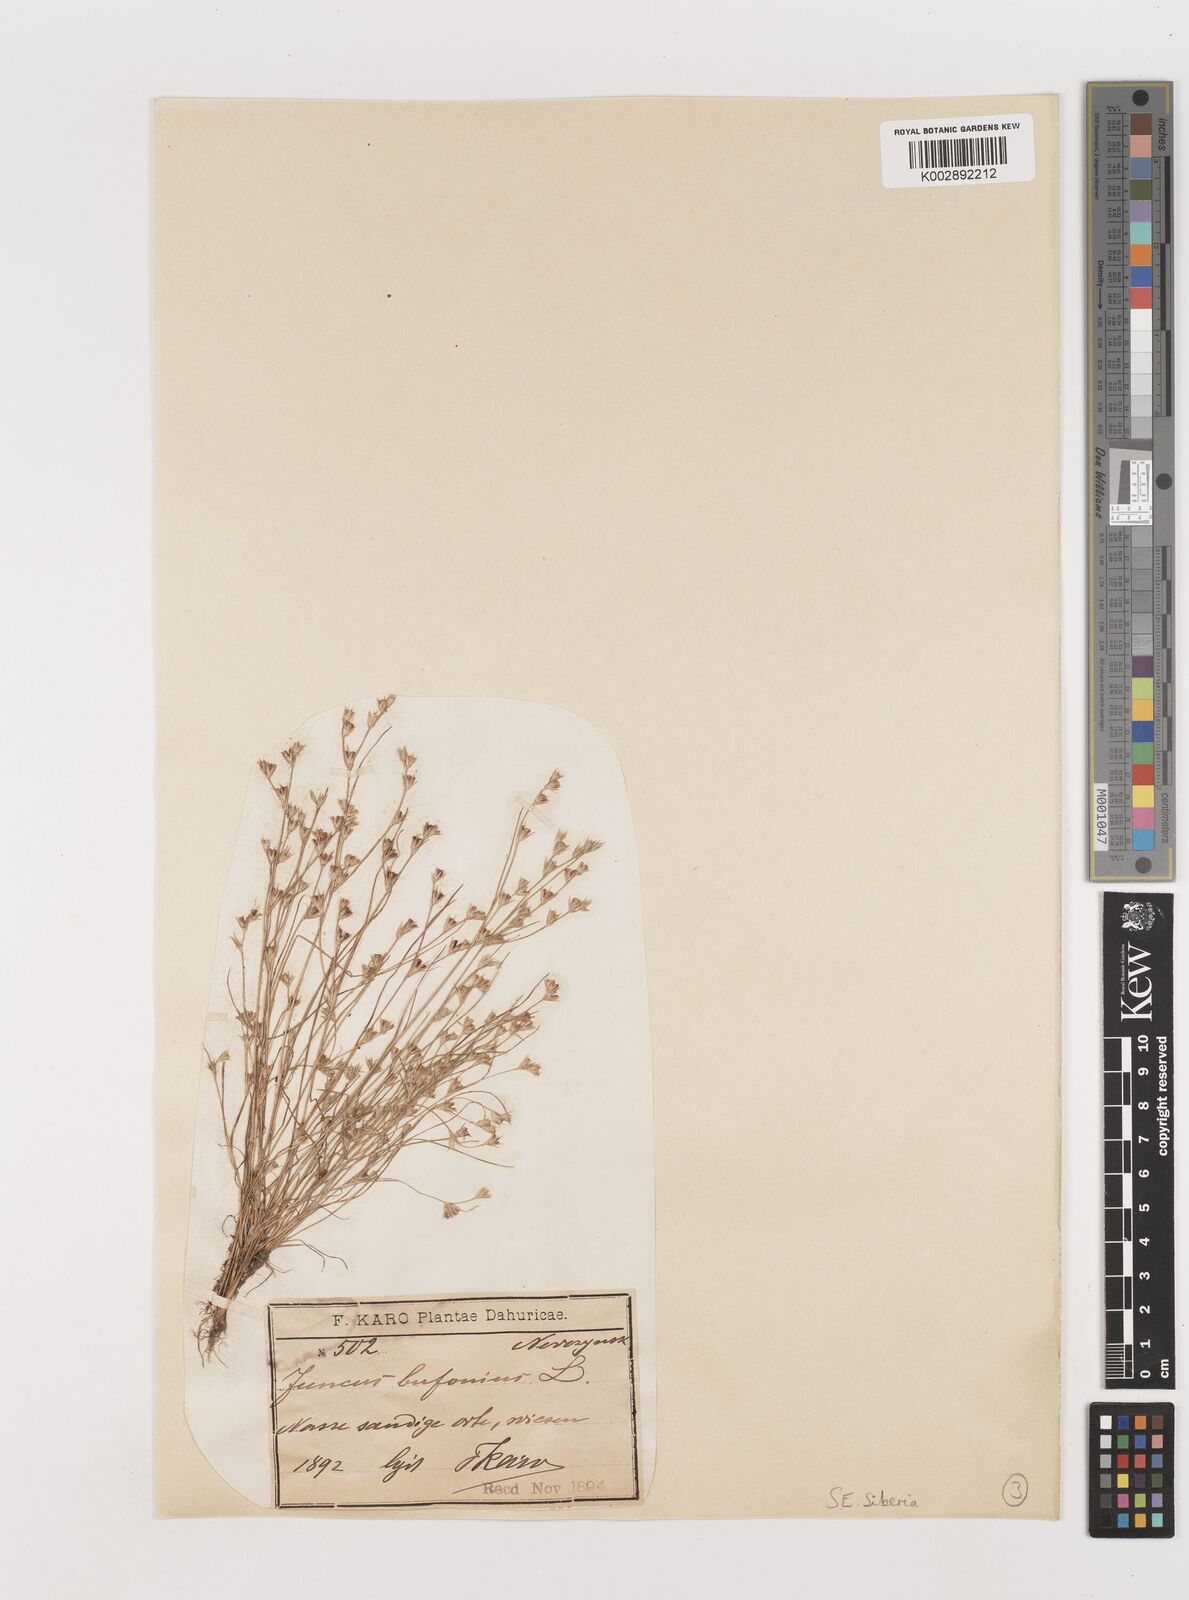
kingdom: Plantae
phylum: Tracheophyta
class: Liliopsida
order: Poales
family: Juncaceae
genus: Juncus
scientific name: Juncus bufonius
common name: Toad rush
